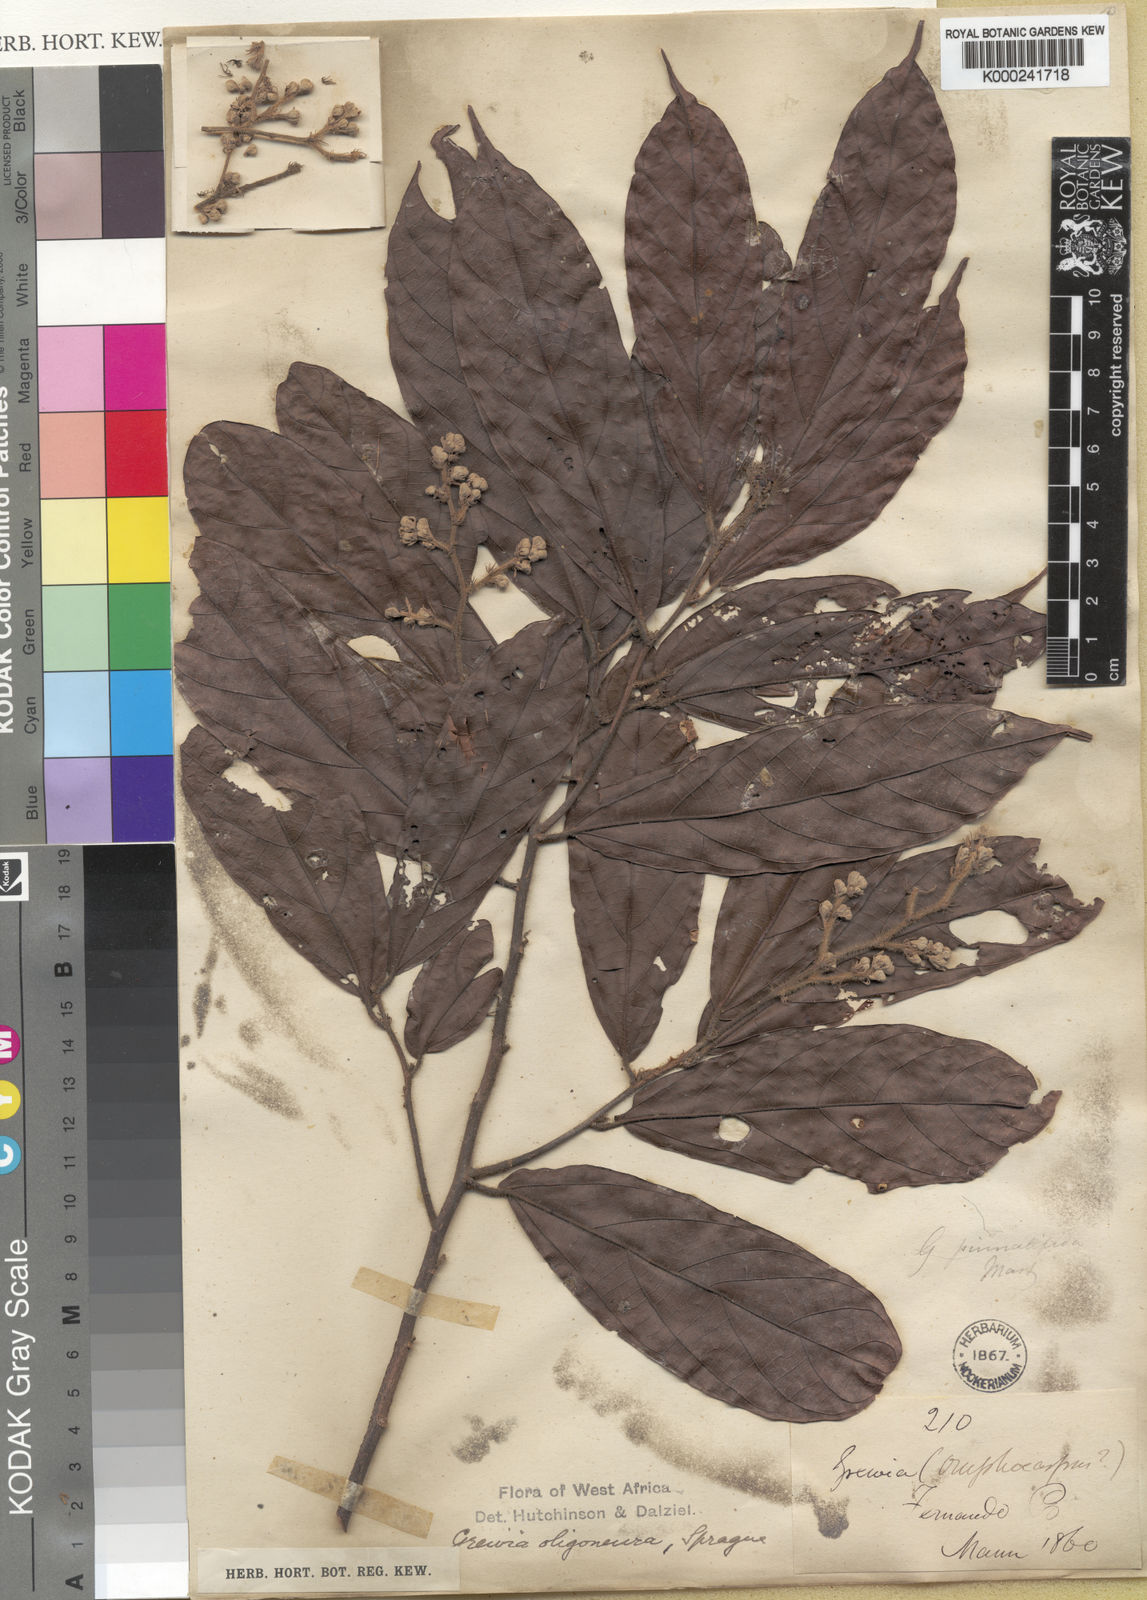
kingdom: Plantae
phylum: Tracheophyta
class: Magnoliopsida
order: Malvales
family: Malvaceae
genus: Microcos
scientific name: Microcos oligoneura
